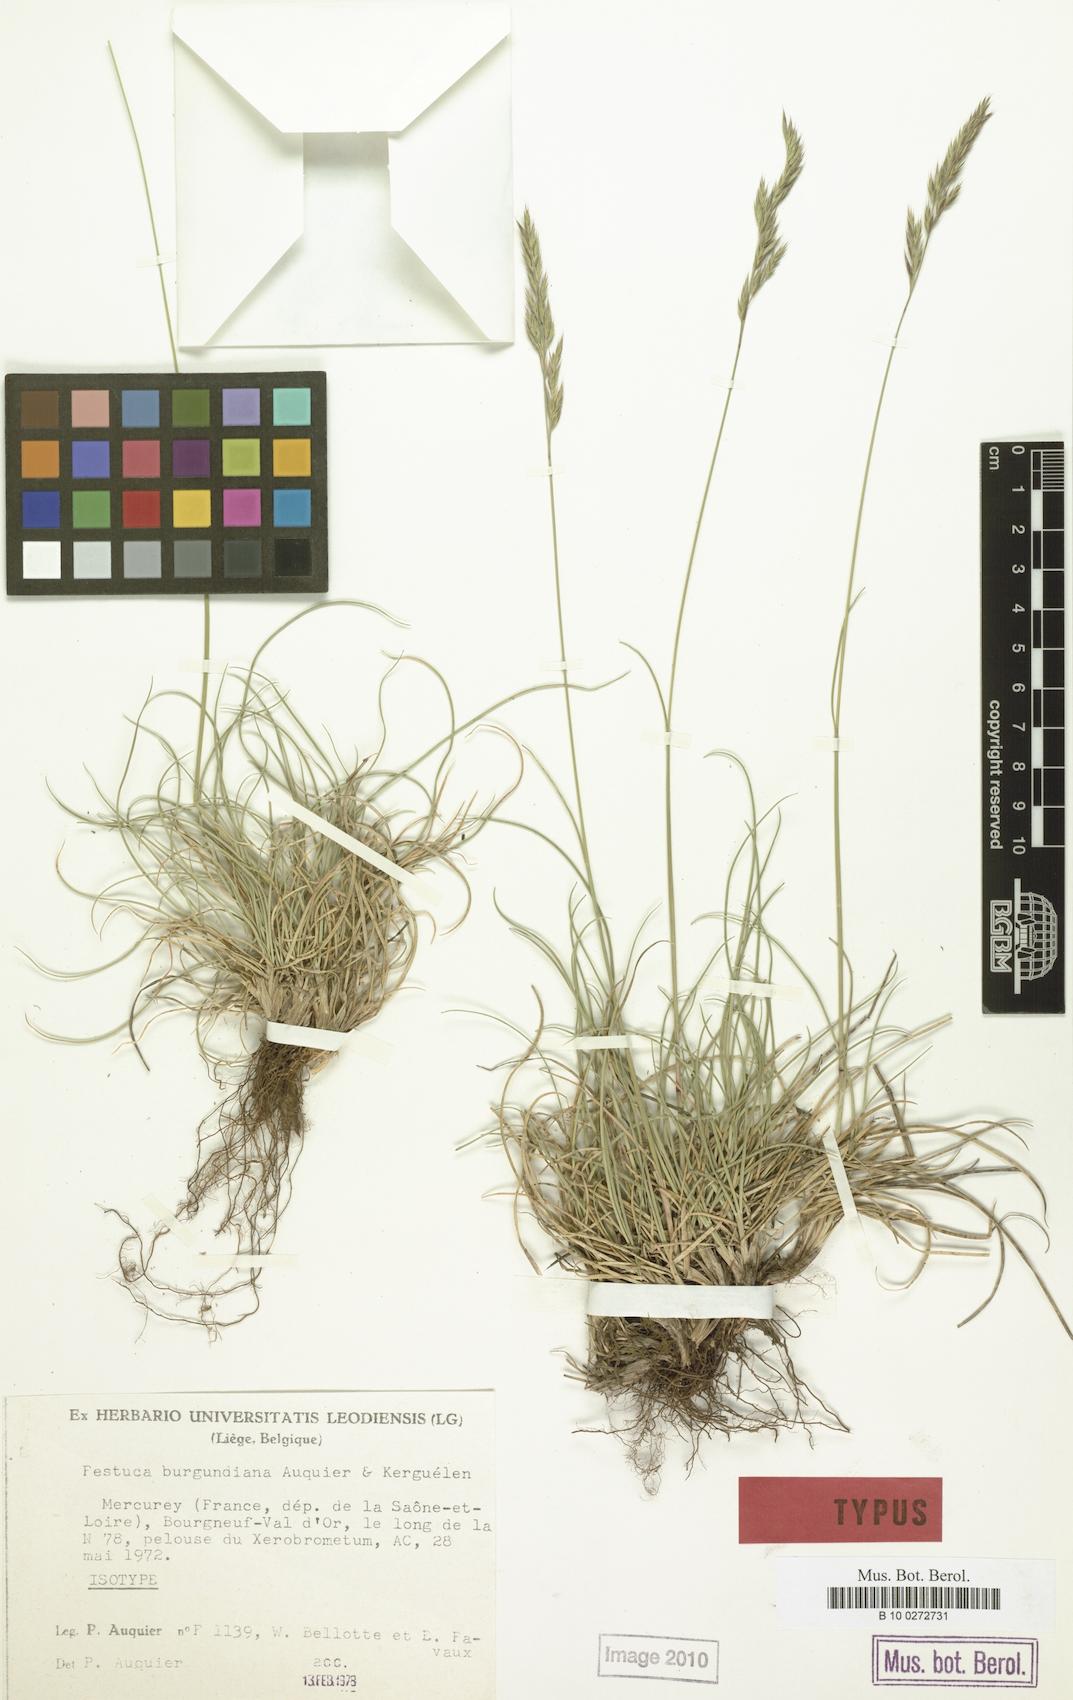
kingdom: Plantae
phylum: Tracheophyta
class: Liliopsida
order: Poales
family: Poaceae
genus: Festuca
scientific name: Festuca burgundiana
